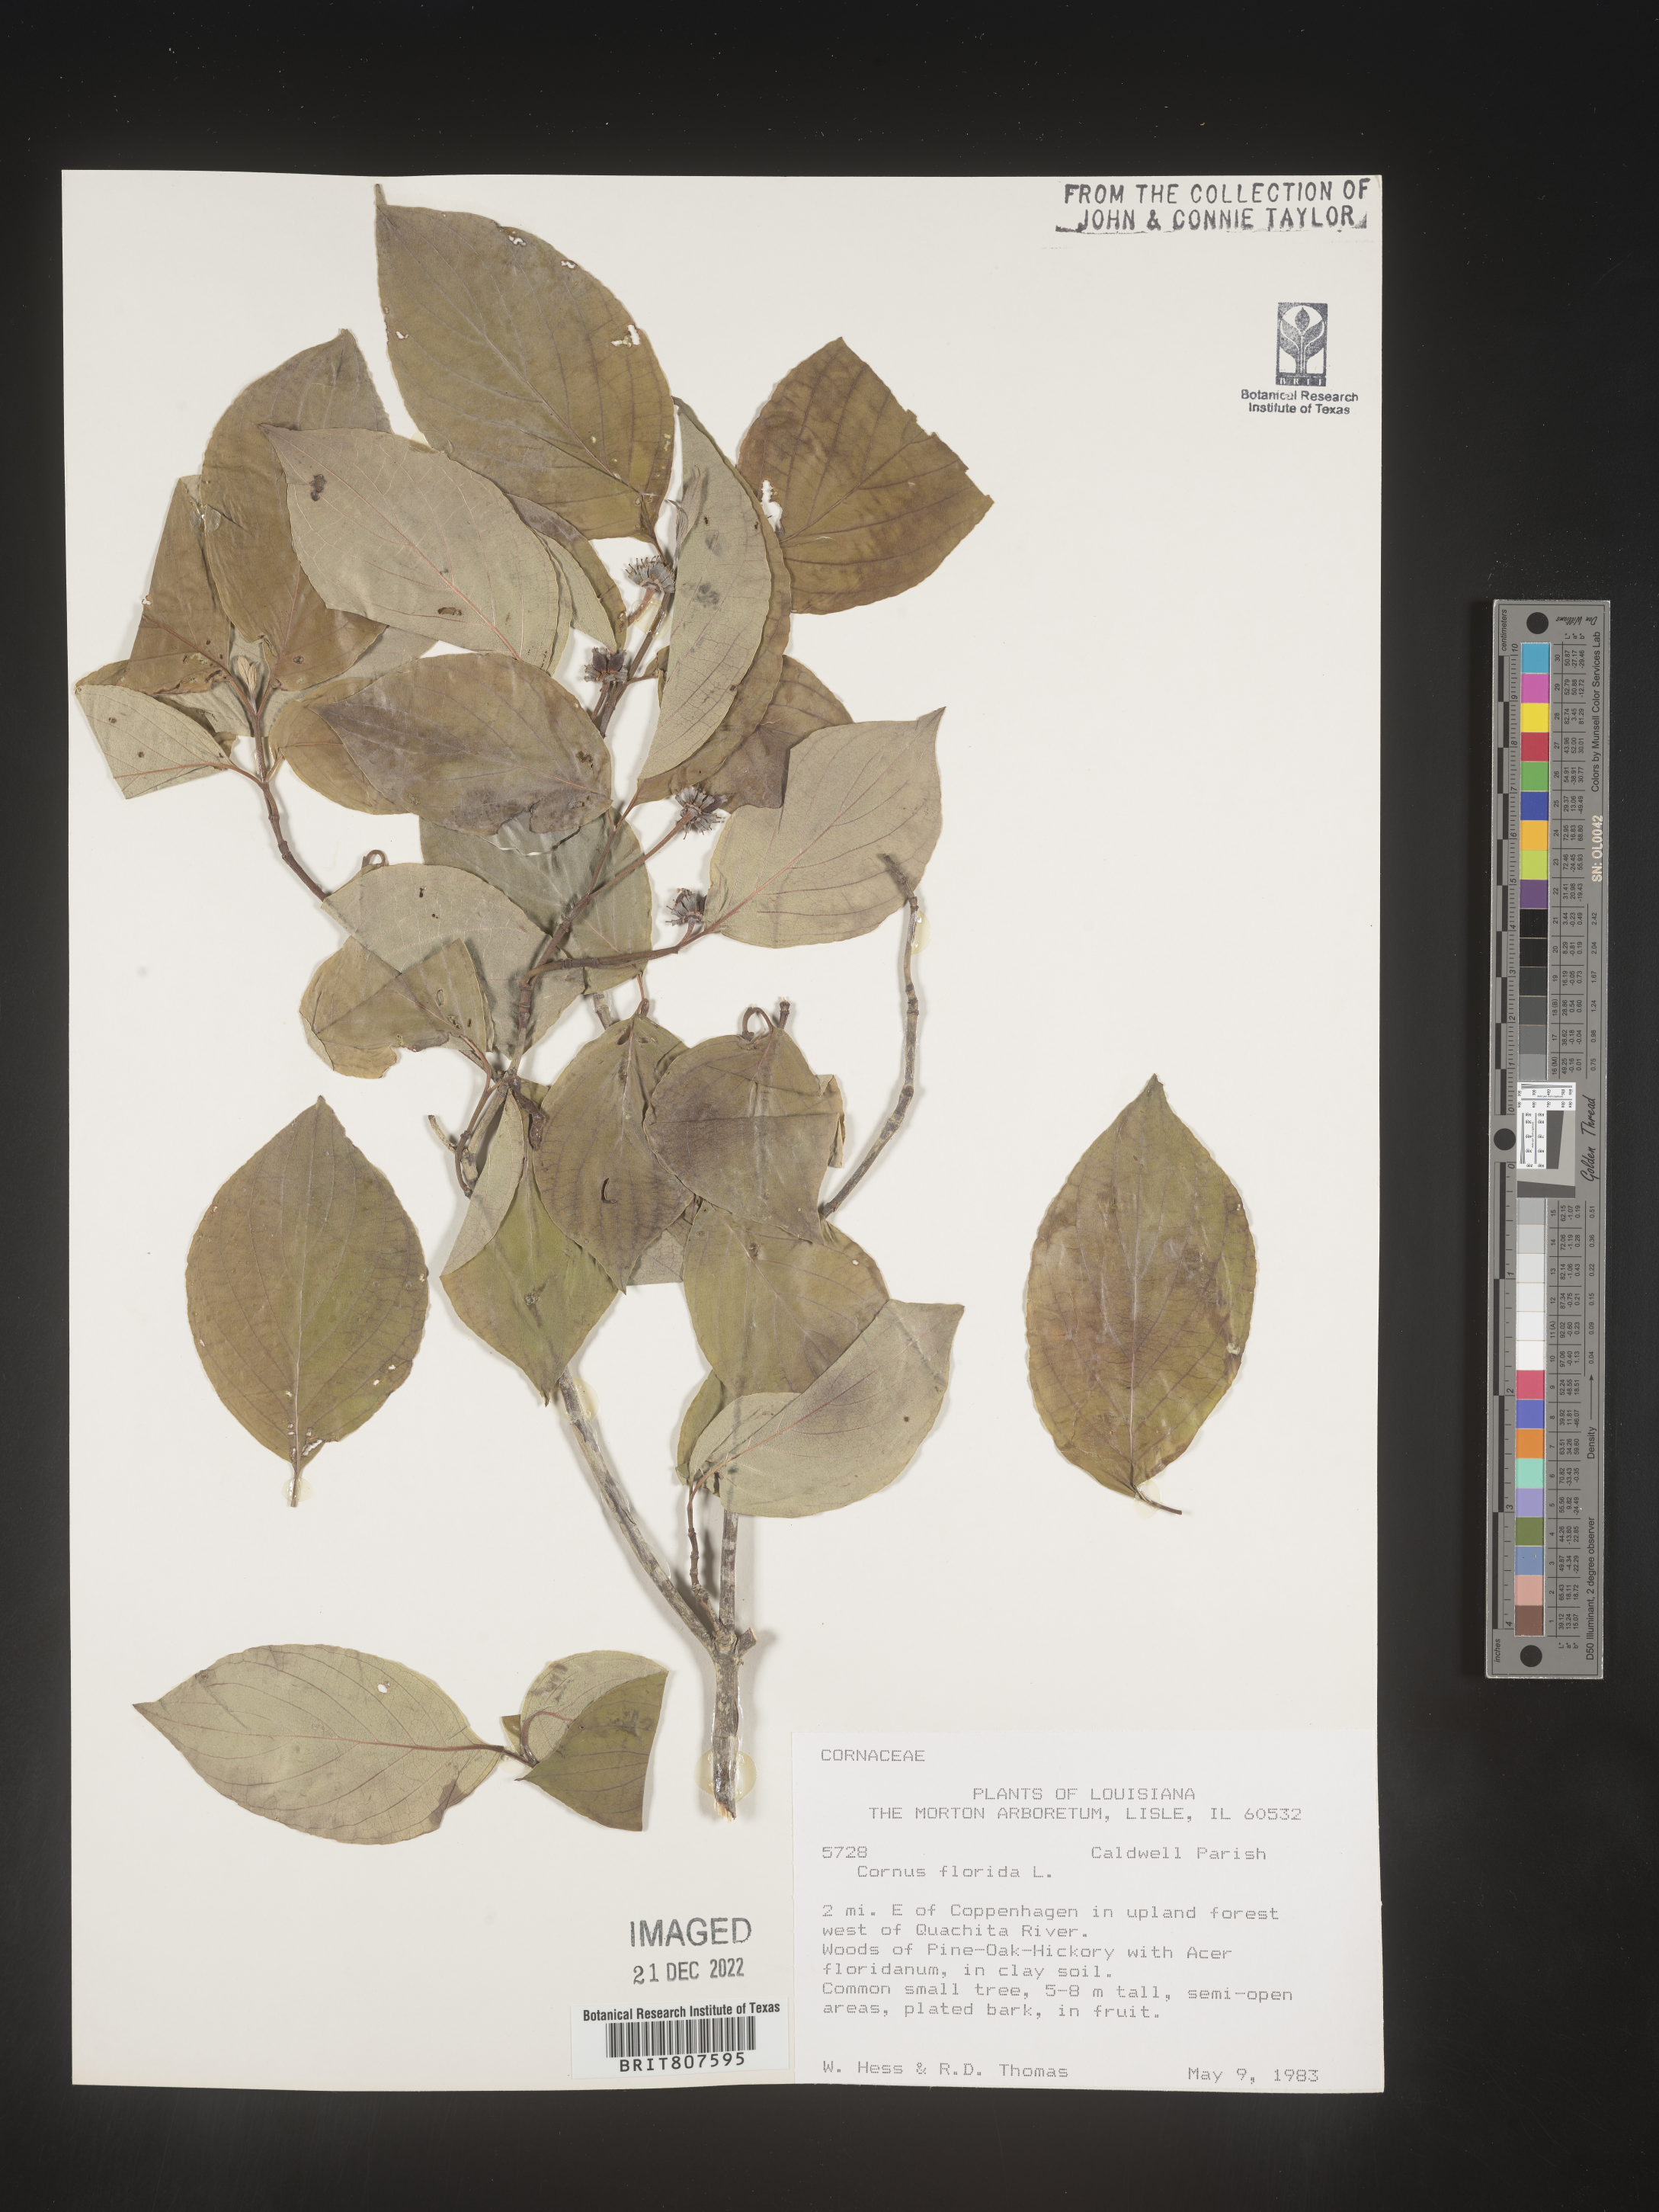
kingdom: Plantae
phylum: Tracheophyta
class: Magnoliopsida
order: Cornales
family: Cornaceae
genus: Cornus
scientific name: Cornus florida
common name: Flowering dogwood
